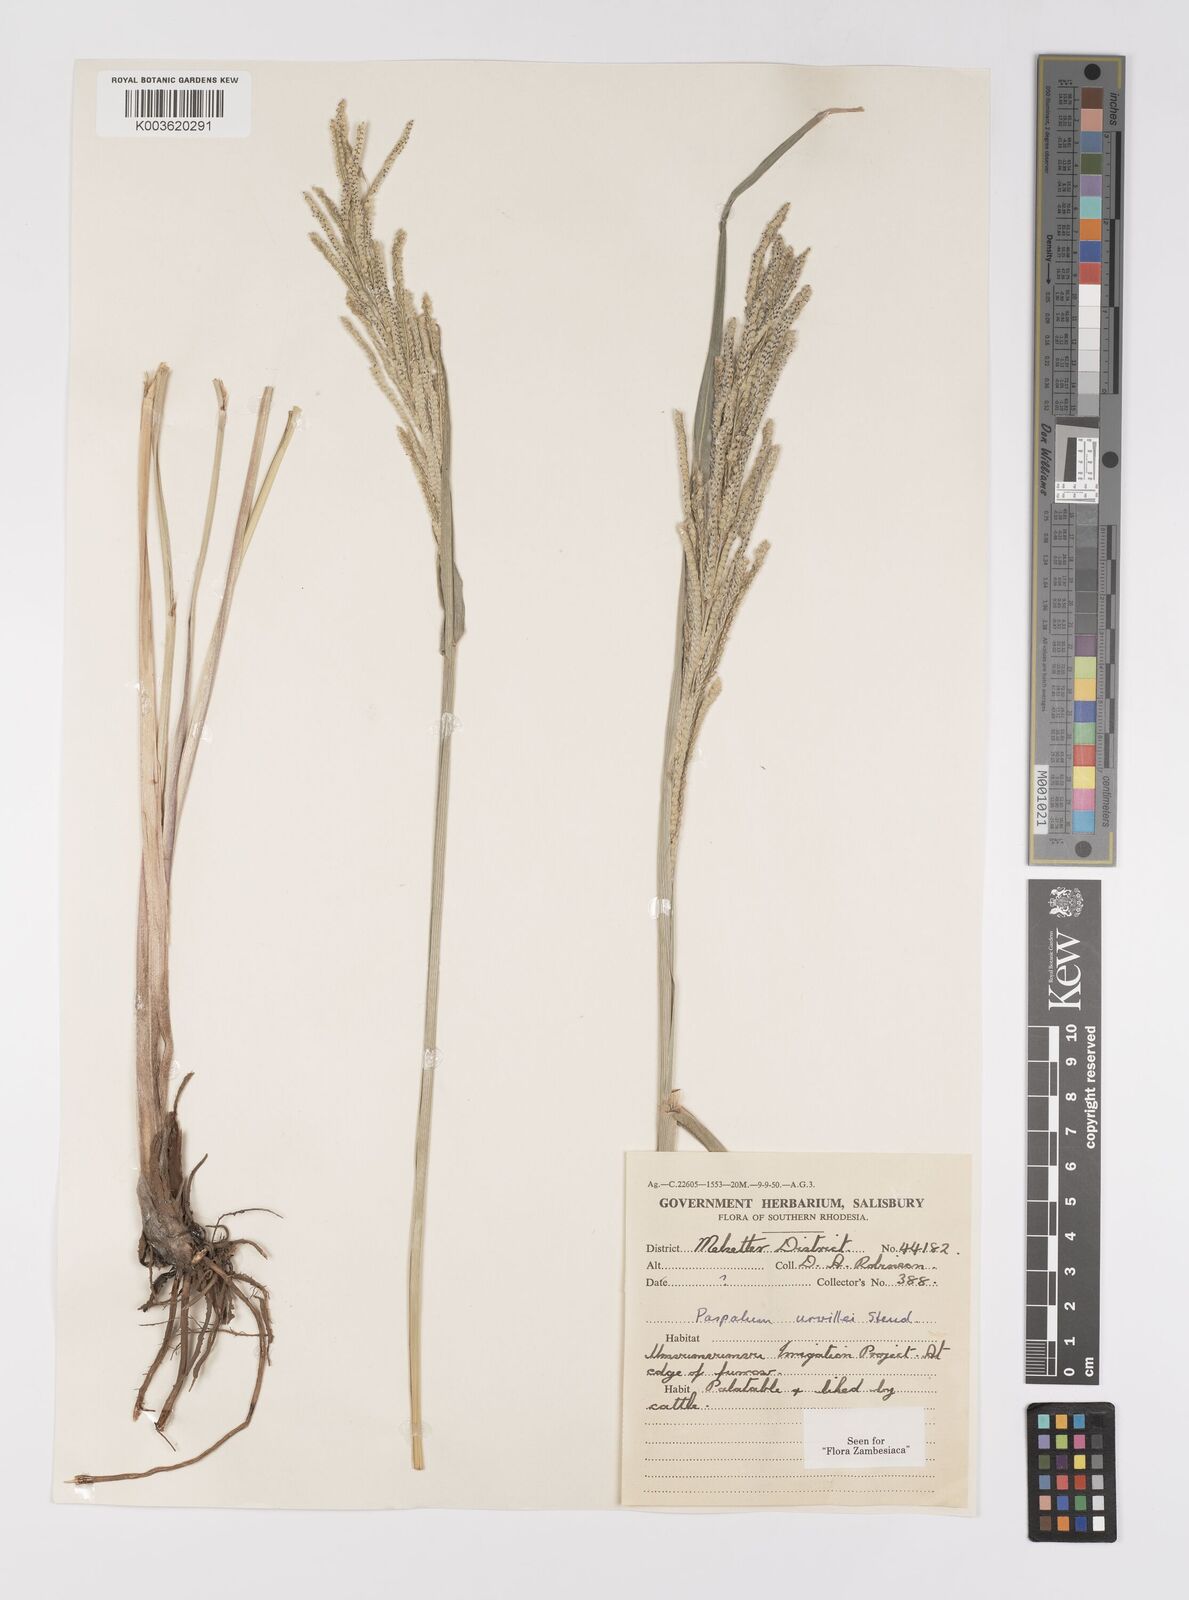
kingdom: Plantae
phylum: Tracheophyta
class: Liliopsida
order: Poales
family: Poaceae
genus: Paspalum
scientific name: Paspalum urvillei
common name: Vasey's grass
